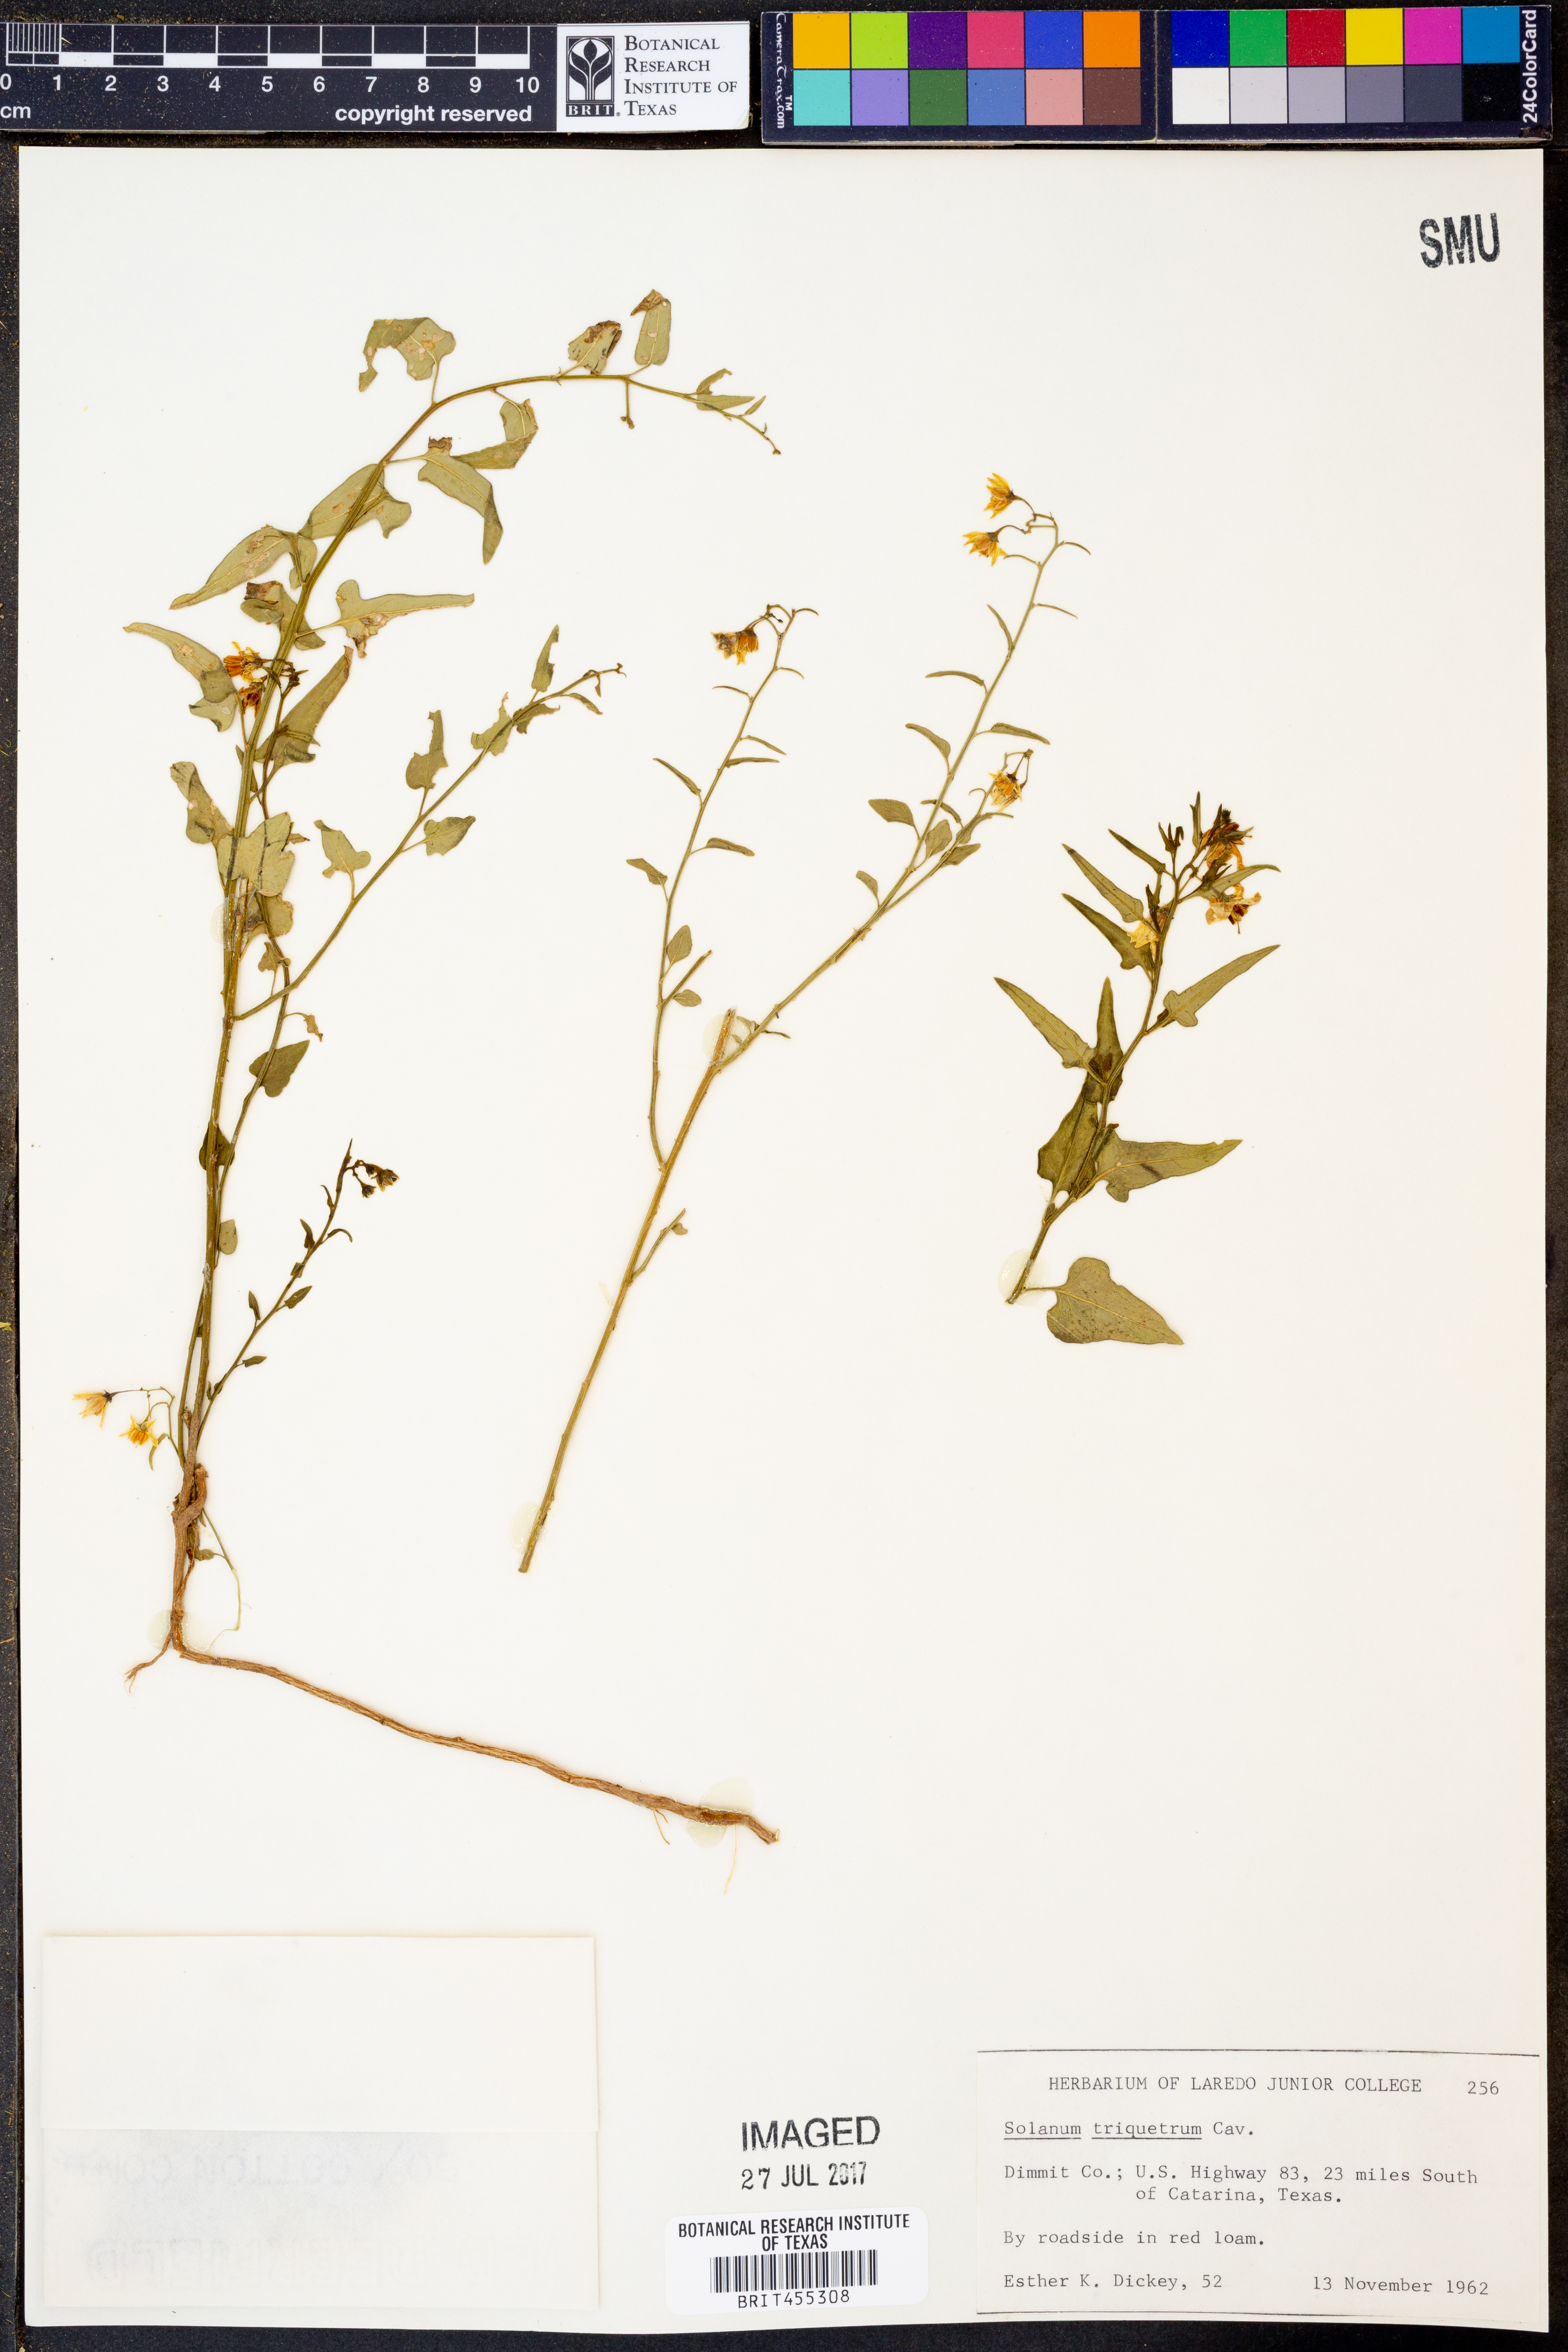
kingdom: Plantae
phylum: Tracheophyta
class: Magnoliopsida
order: Solanales
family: Solanaceae
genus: Solanum
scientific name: Solanum triquetrum
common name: Texas nightshade
